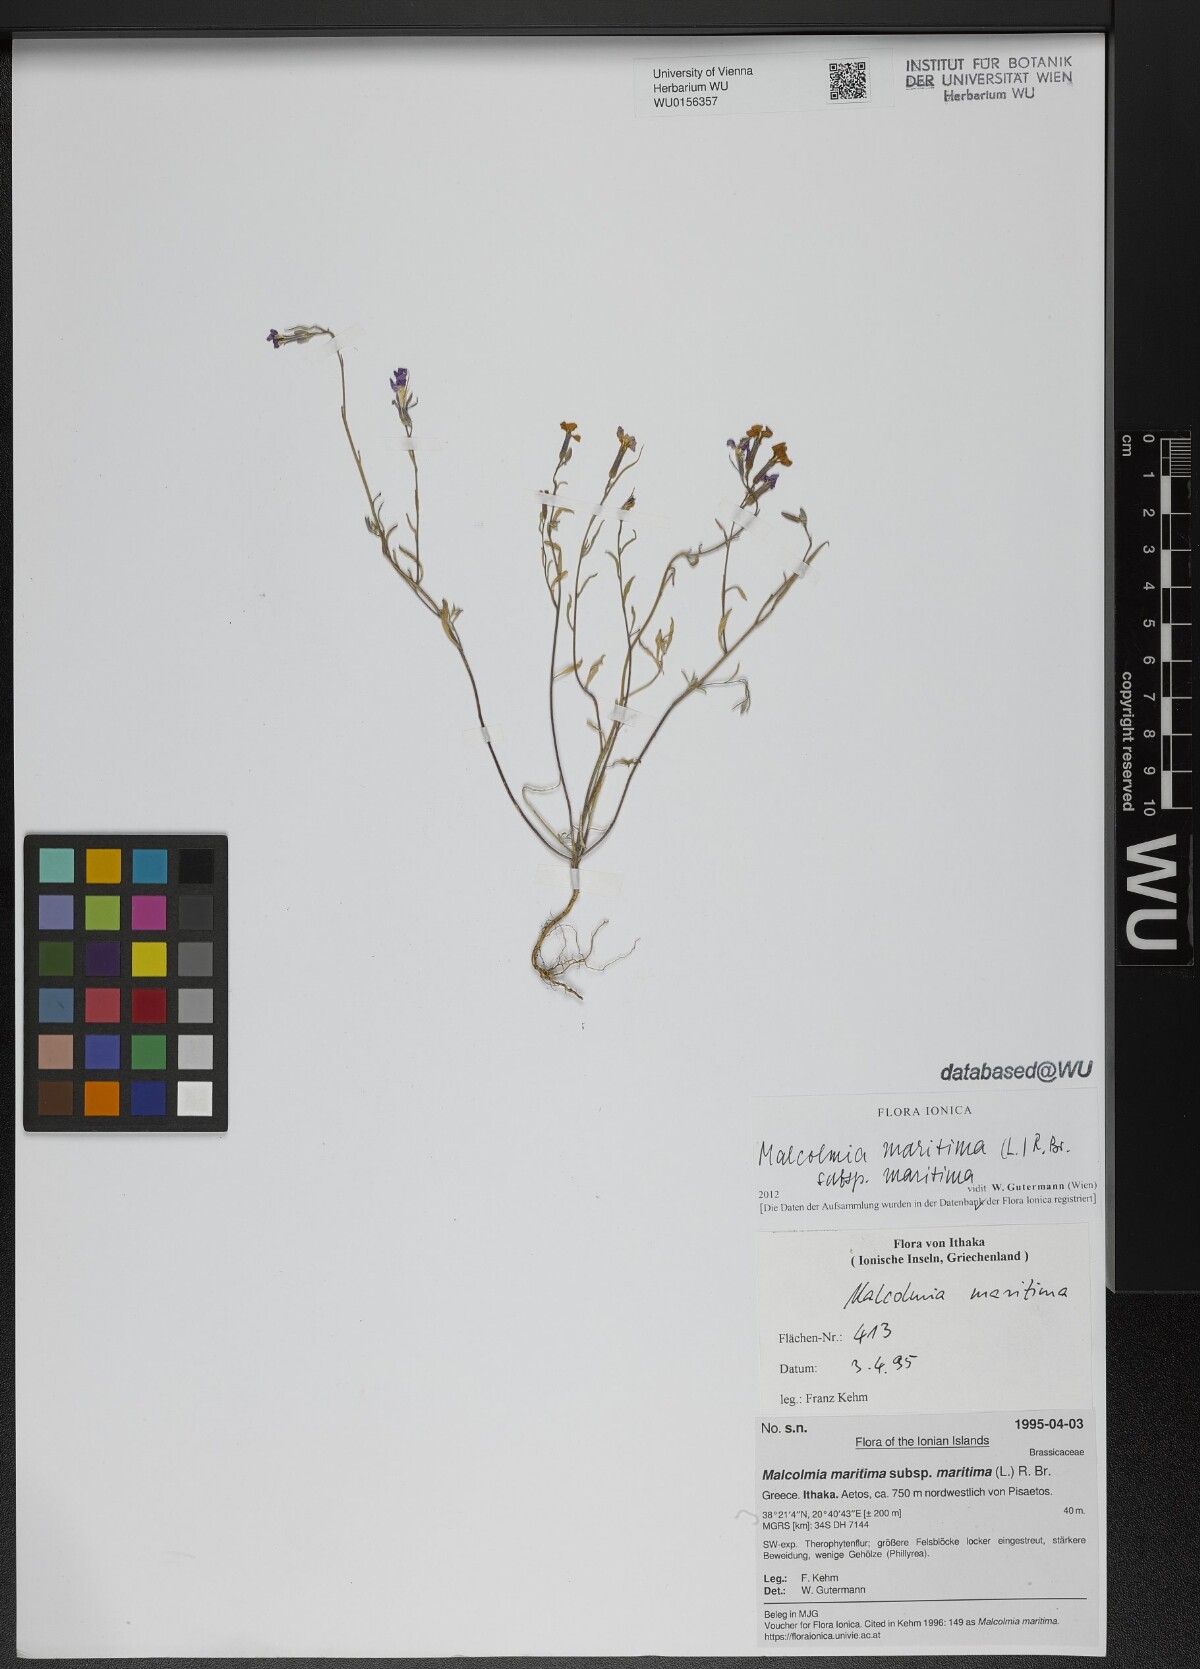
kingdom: Plantae
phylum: Tracheophyta
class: Magnoliopsida
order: Brassicales
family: Brassicaceae
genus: Malcolmia
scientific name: Malcolmia maritima
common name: Virginia stock
